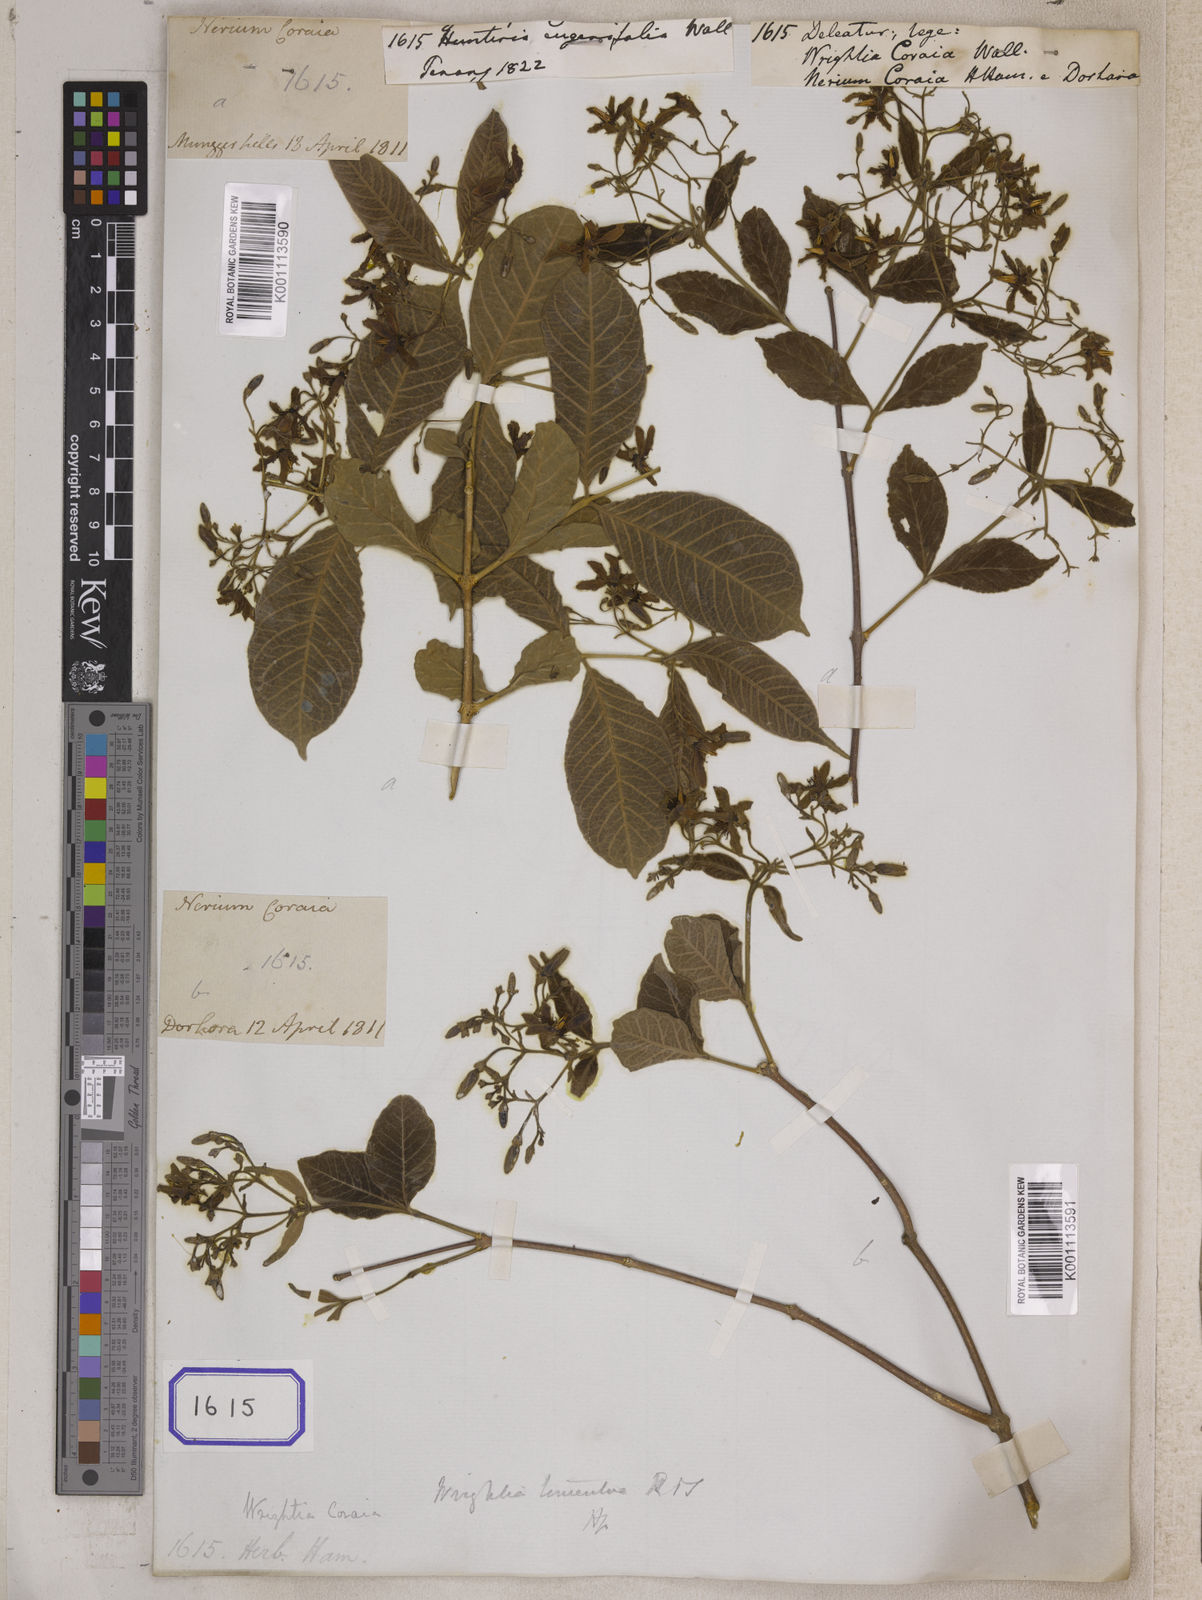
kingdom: Plantae
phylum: Tracheophyta
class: Magnoliopsida
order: Gentianales
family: Apocynaceae
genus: Wrightia
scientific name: Wrightia
